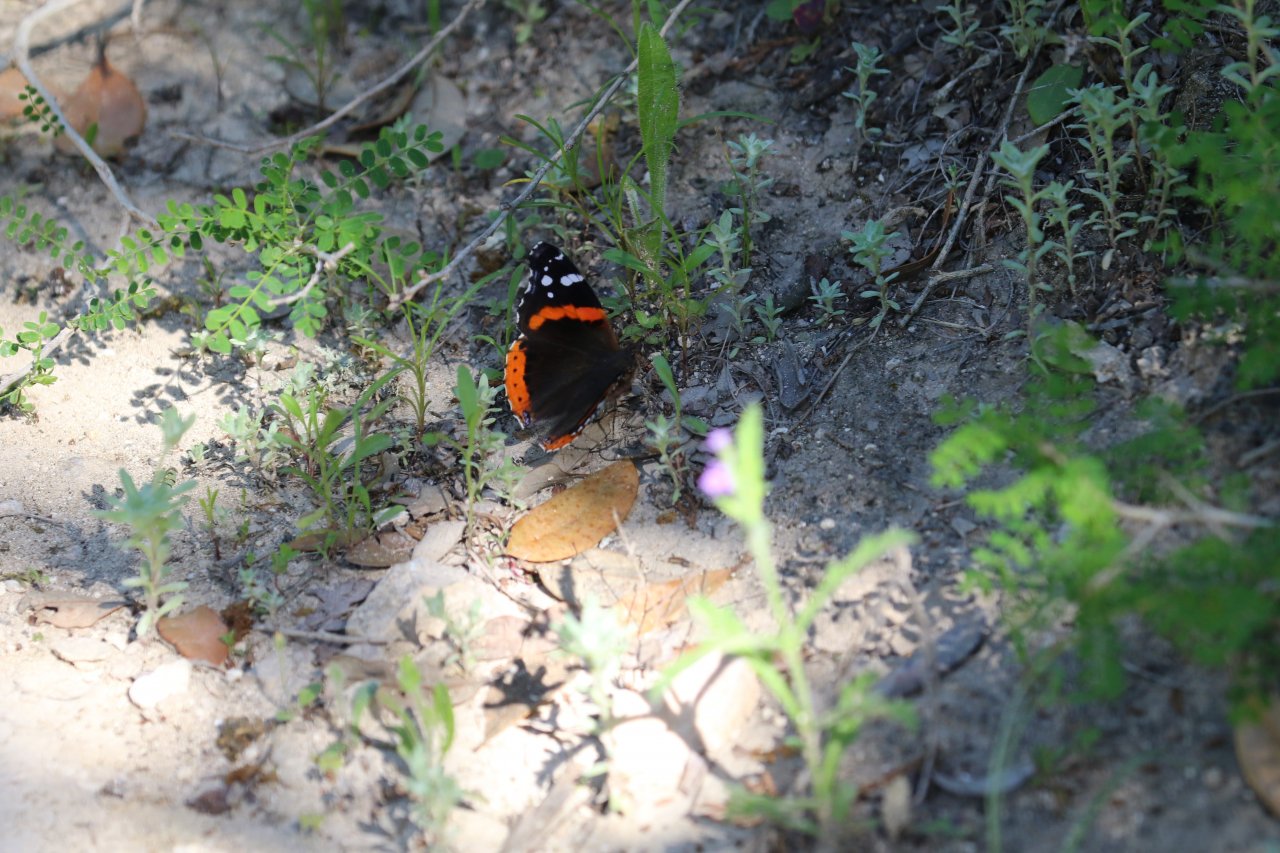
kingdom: Animalia
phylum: Arthropoda
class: Insecta
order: Lepidoptera
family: Nymphalidae
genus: Vanessa
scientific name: Vanessa atalanta
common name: Red Admiral
